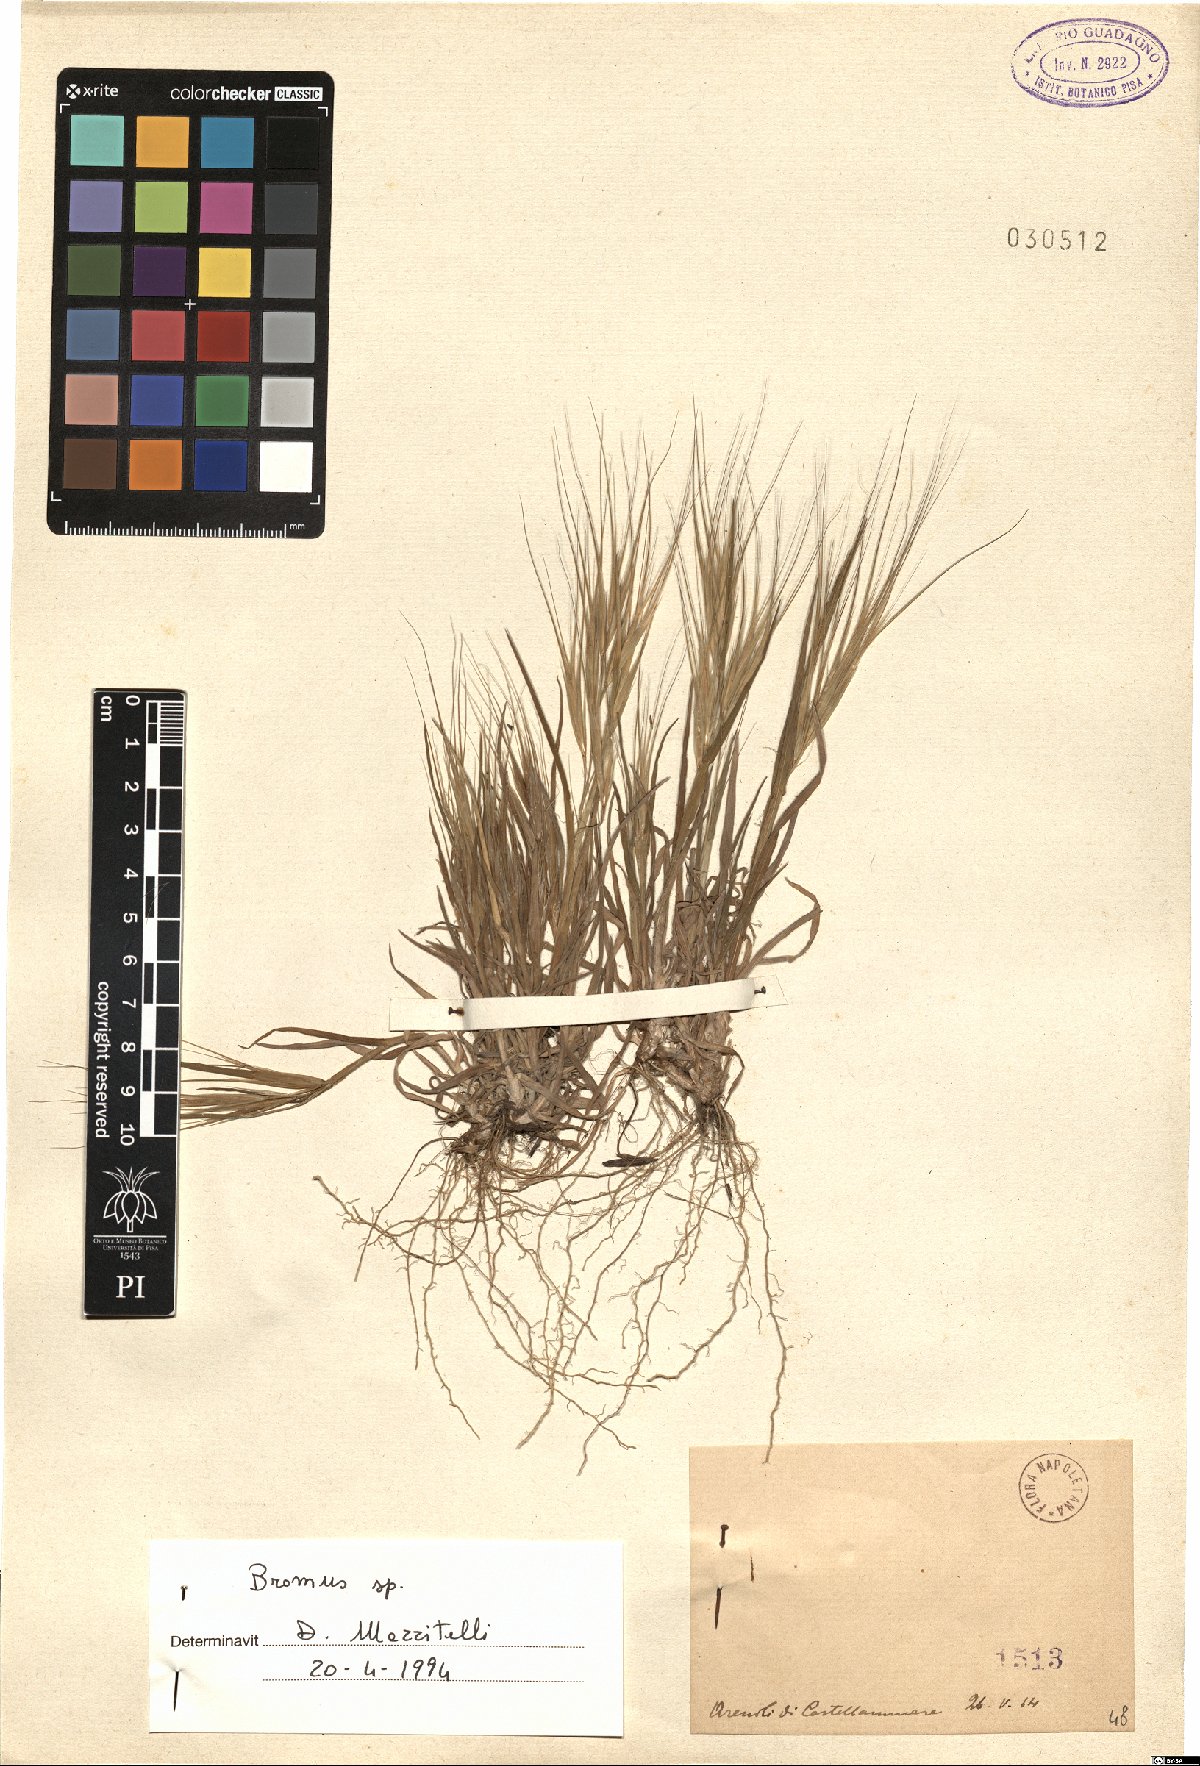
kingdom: Plantae
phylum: Tracheophyta
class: Liliopsida
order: Poales
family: Poaceae
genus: Bromus
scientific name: Bromus
